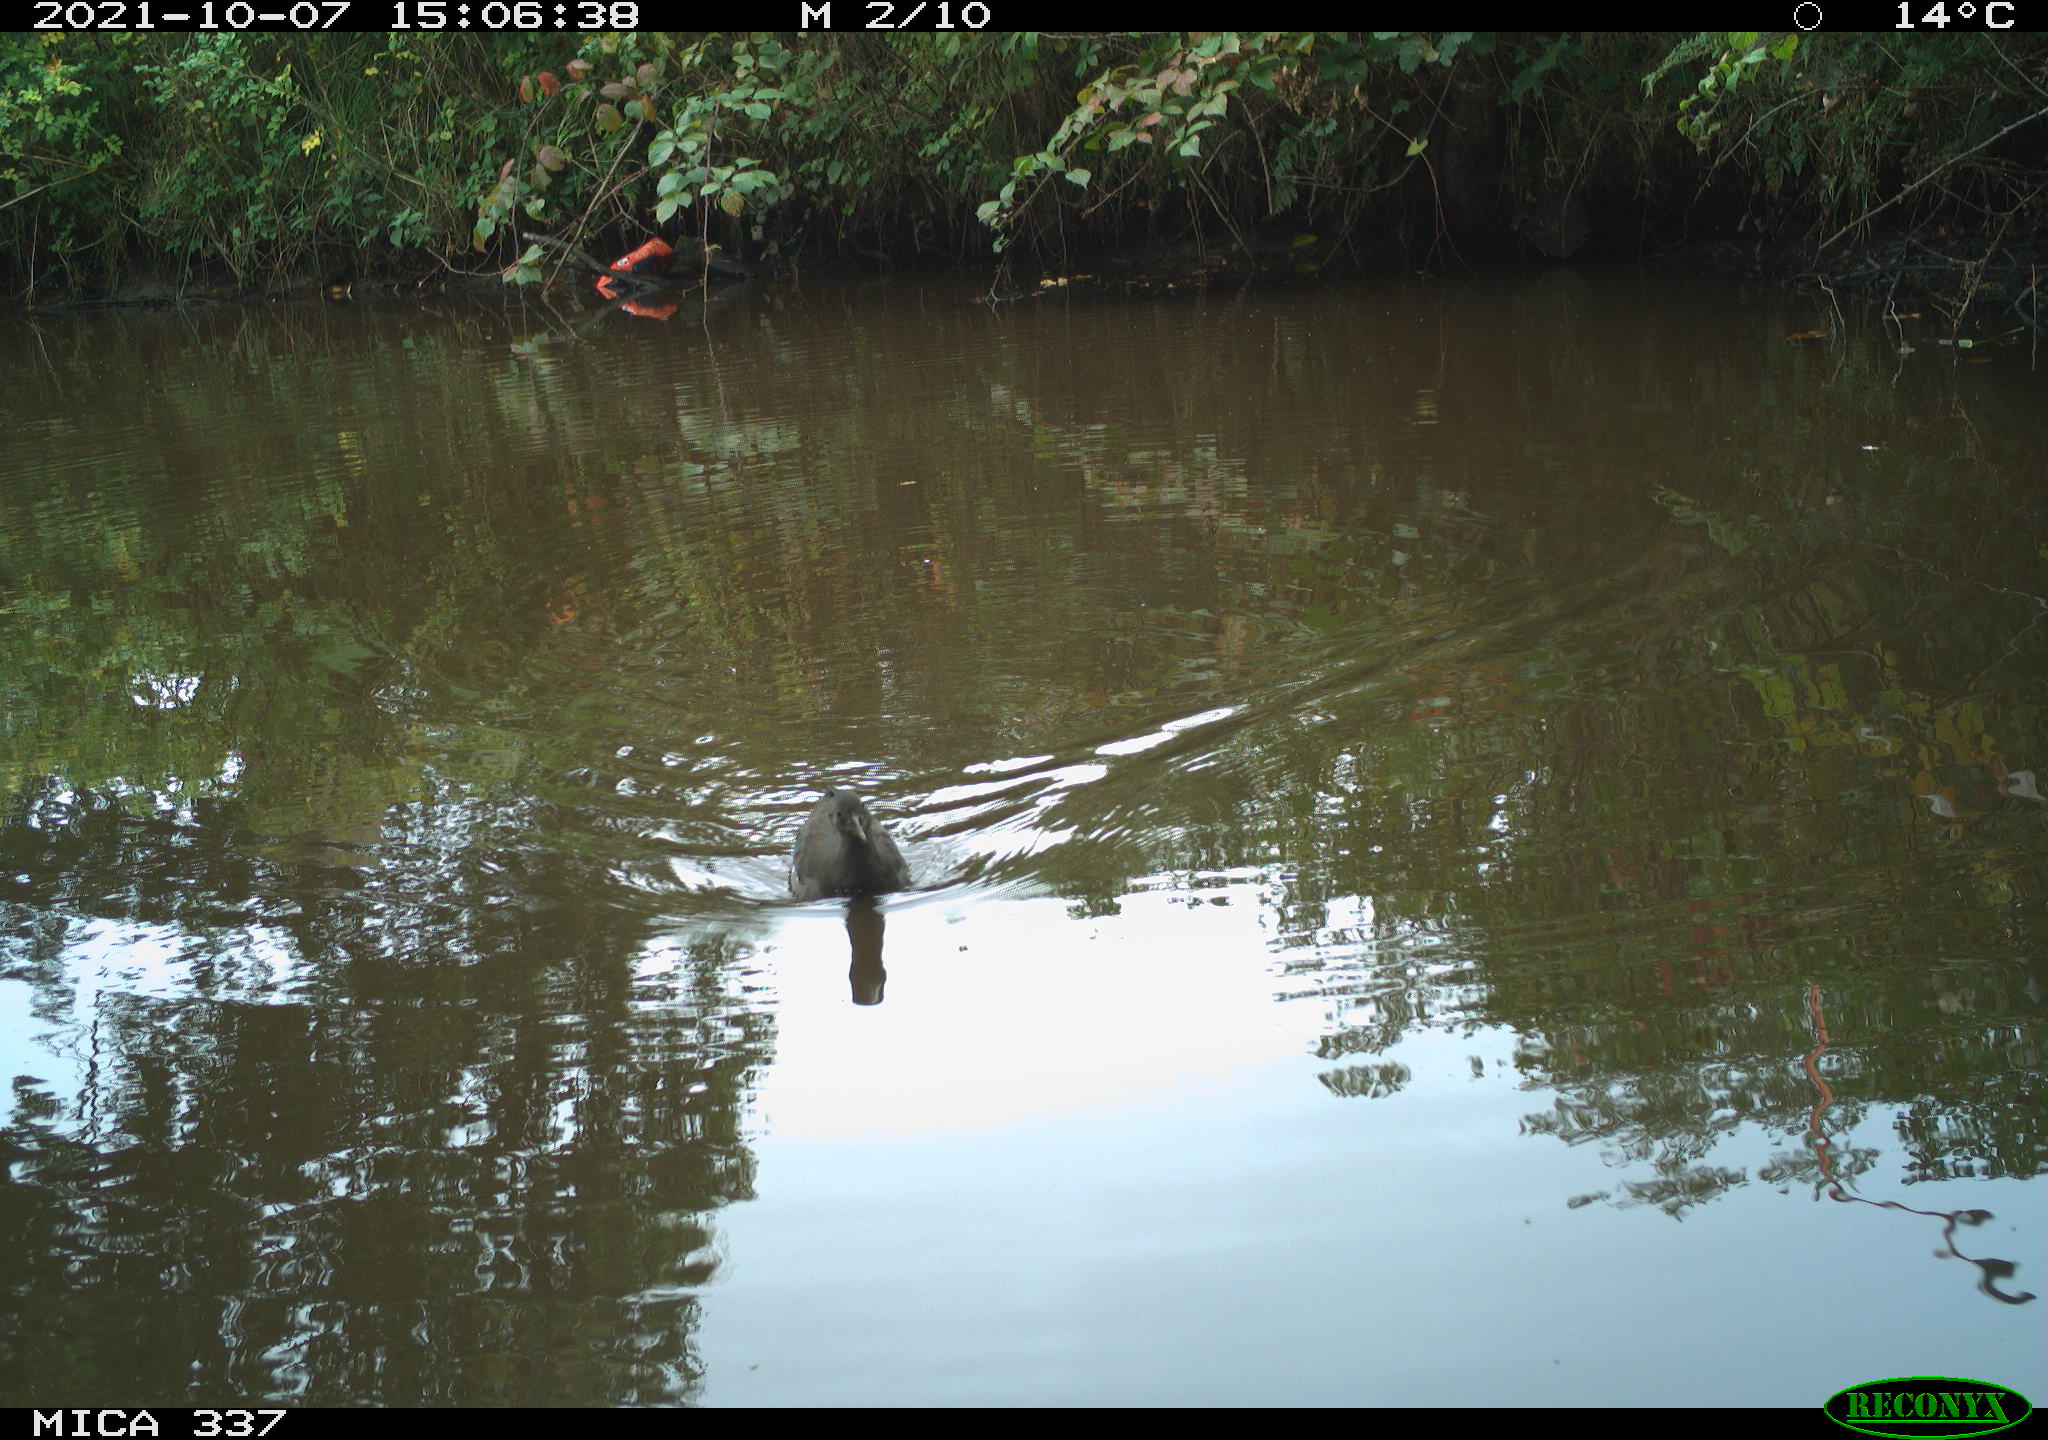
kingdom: Animalia
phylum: Chordata
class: Aves
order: Gruiformes
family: Rallidae
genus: Gallinula
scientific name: Gallinula chloropus
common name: Common moorhen
